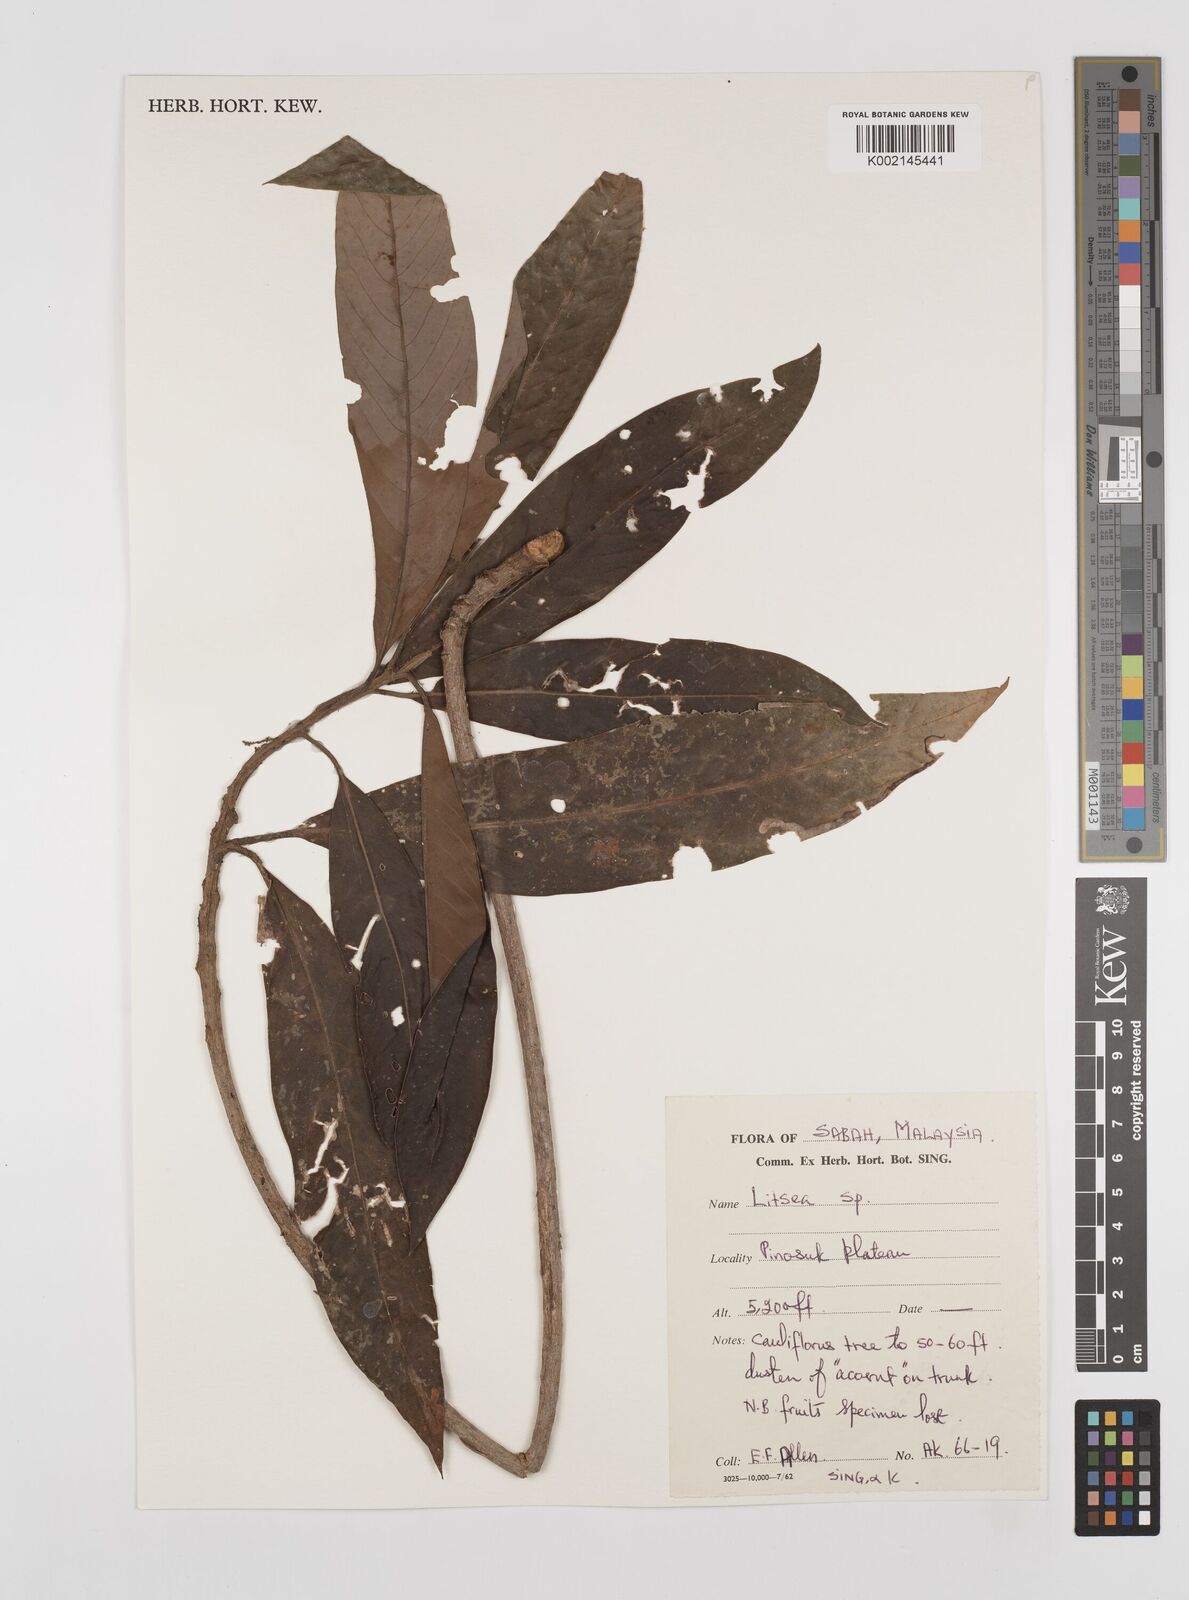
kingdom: Plantae
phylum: Tracheophyta
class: Magnoliopsida
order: Laurales
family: Lauraceae
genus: Litsea
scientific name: Litsea
